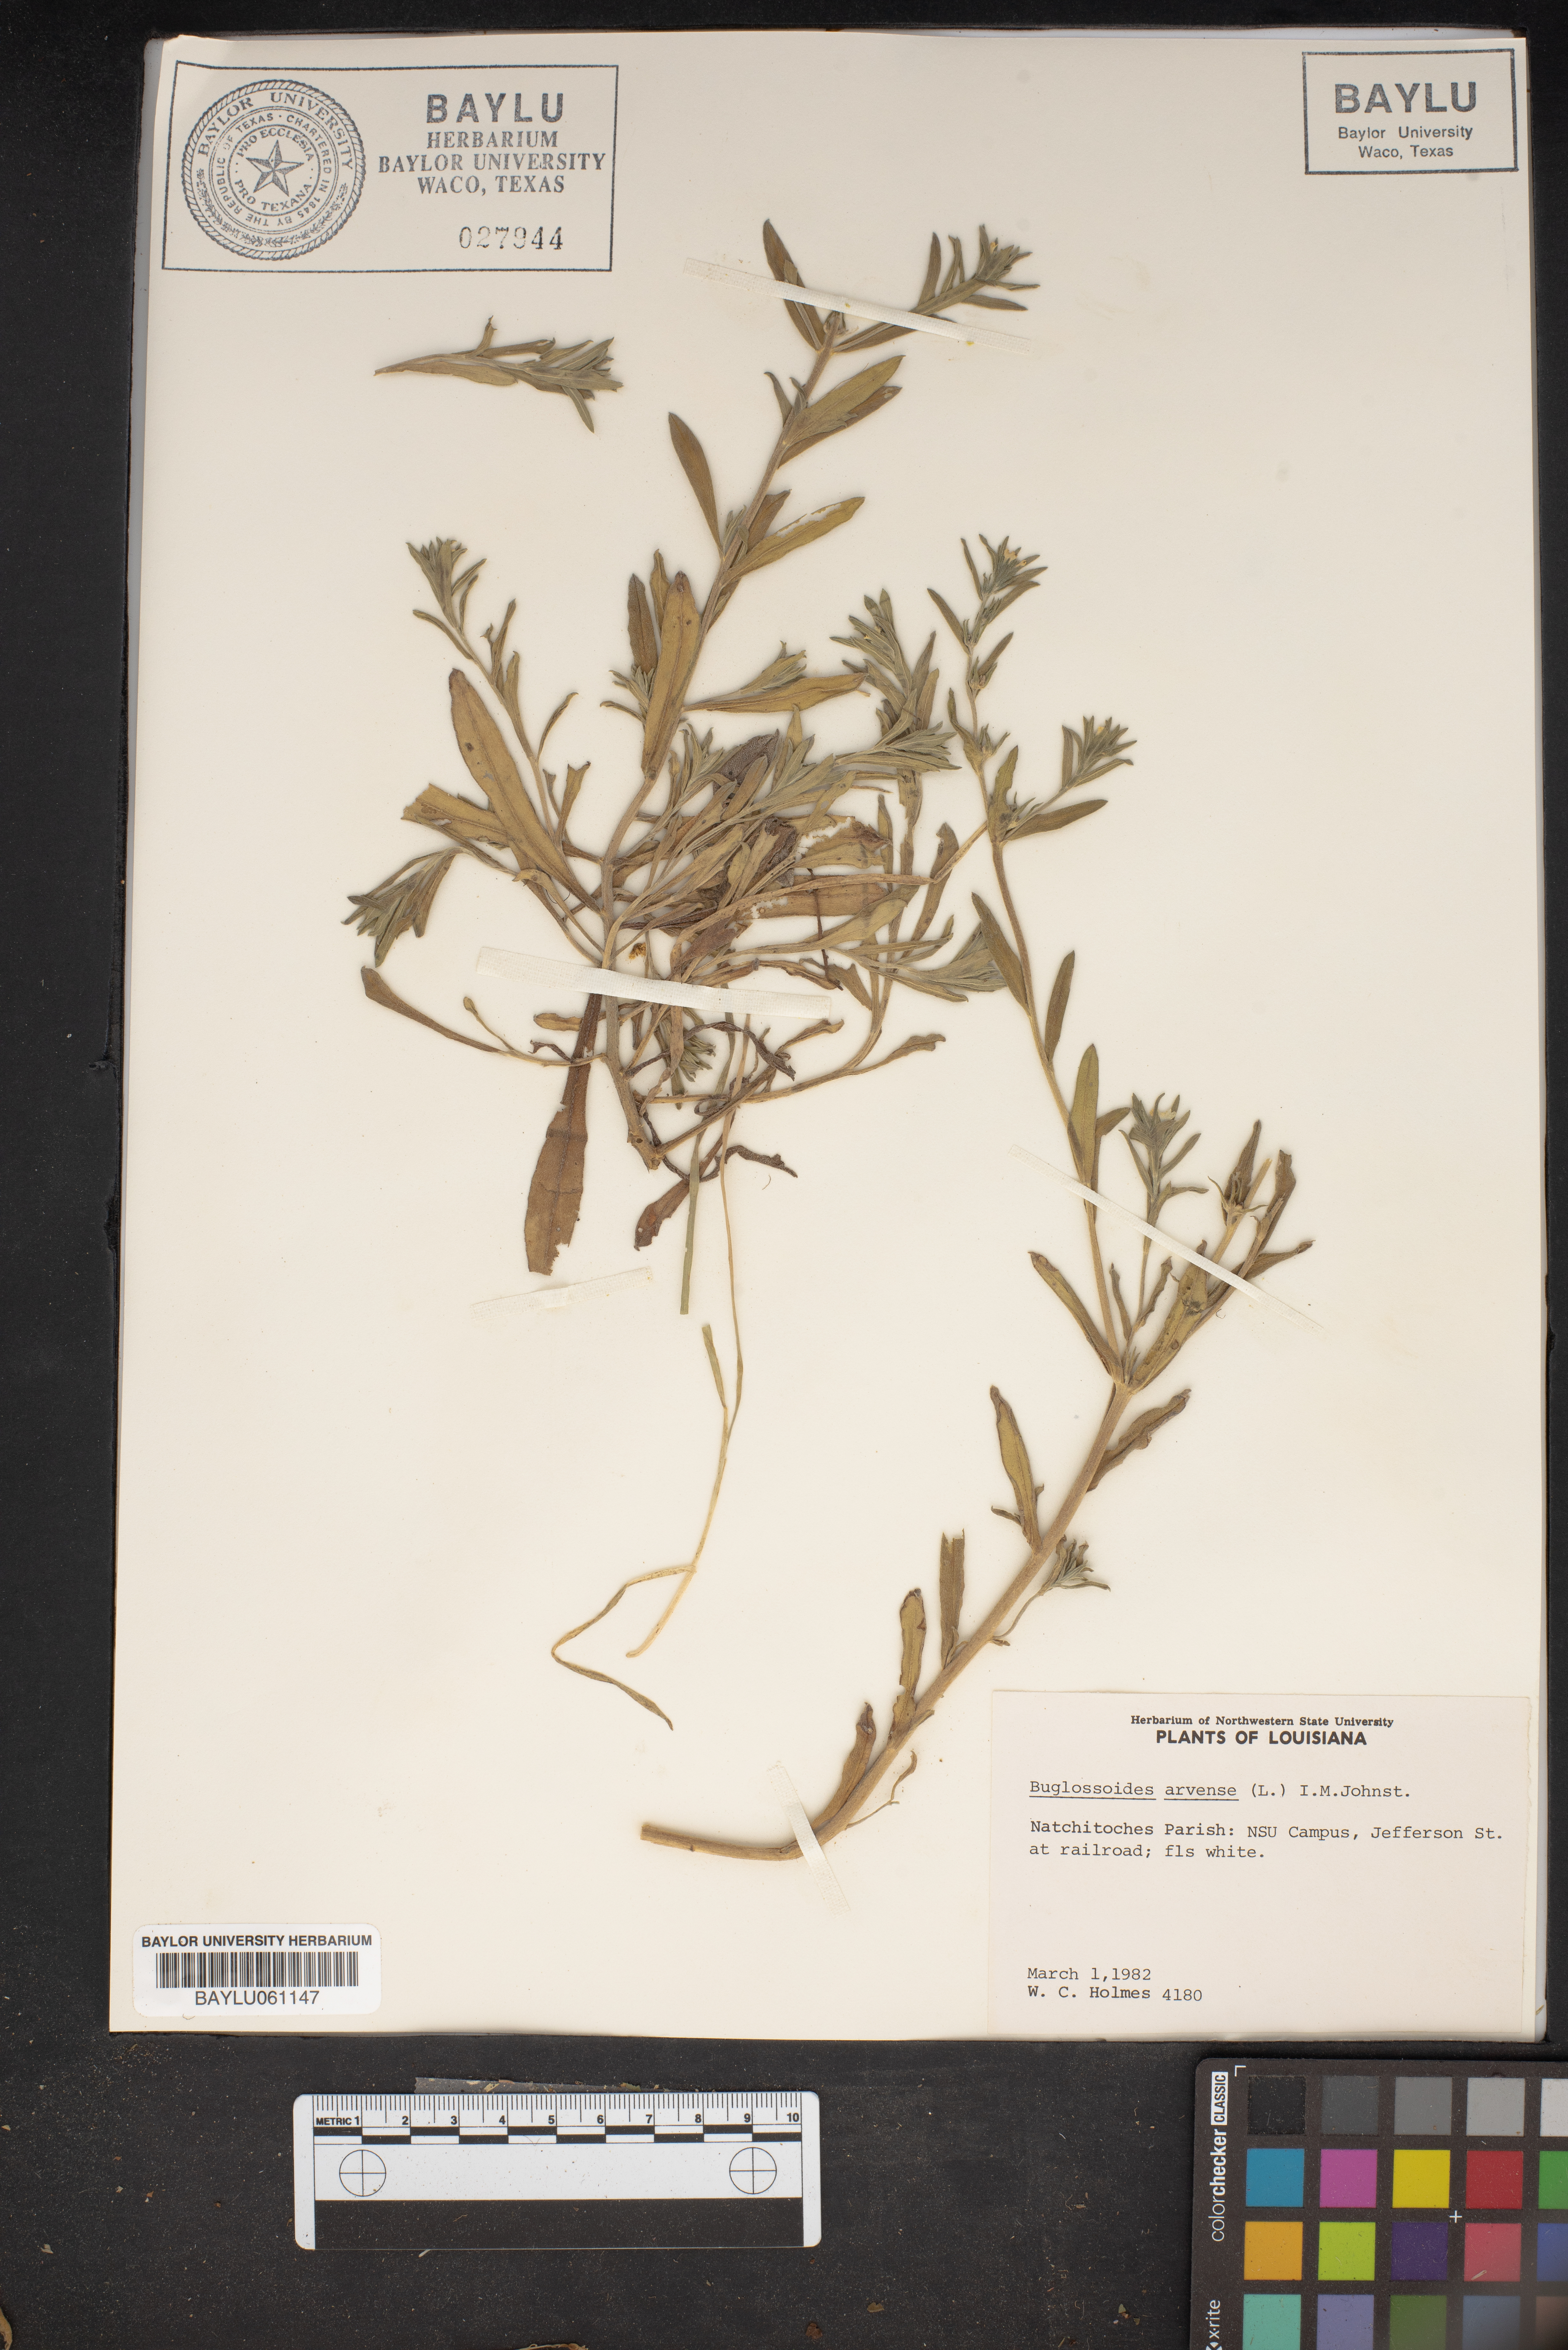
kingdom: Plantae
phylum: Tracheophyta
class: Magnoliopsida
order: Boraginales
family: Boraginaceae
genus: Buglossoides
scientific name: Buglossoides arvensis
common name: Corn gromwell
